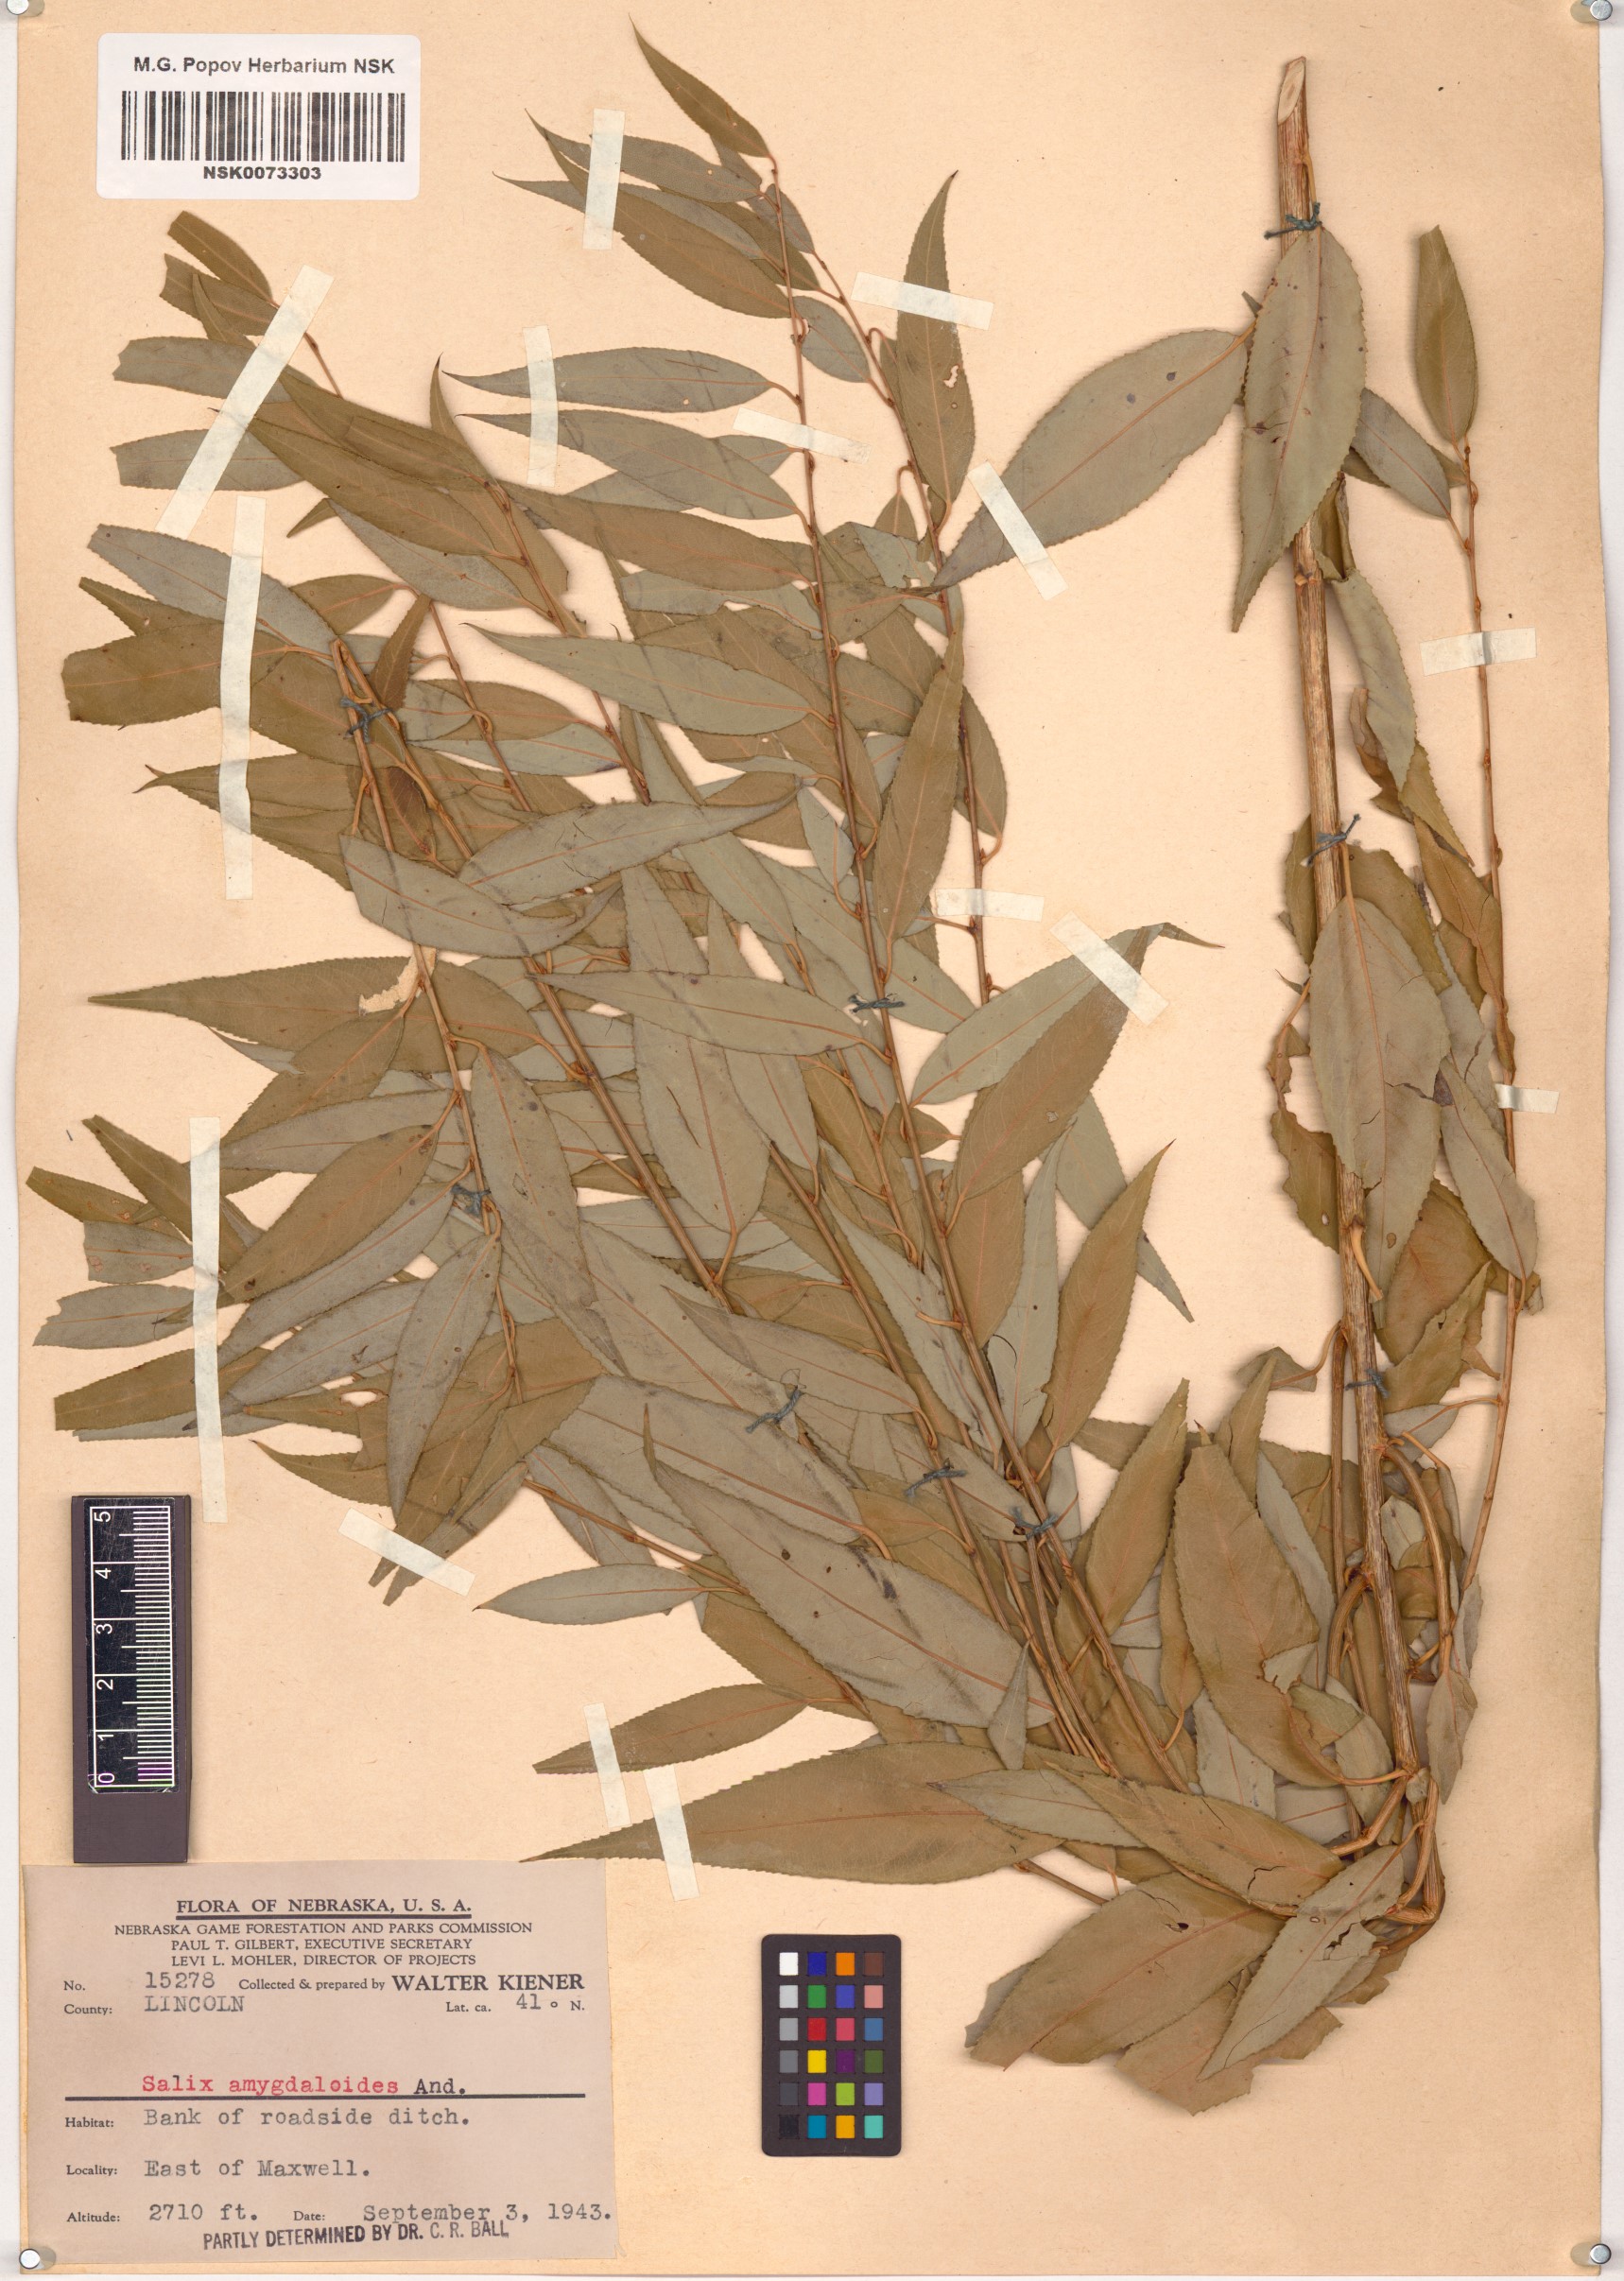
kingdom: Plantae
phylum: Tracheophyta
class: Magnoliopsida
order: Malpighiales
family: Salicaceae
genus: Salix
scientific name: Salix amygdaloides
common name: Peach leaf willow
